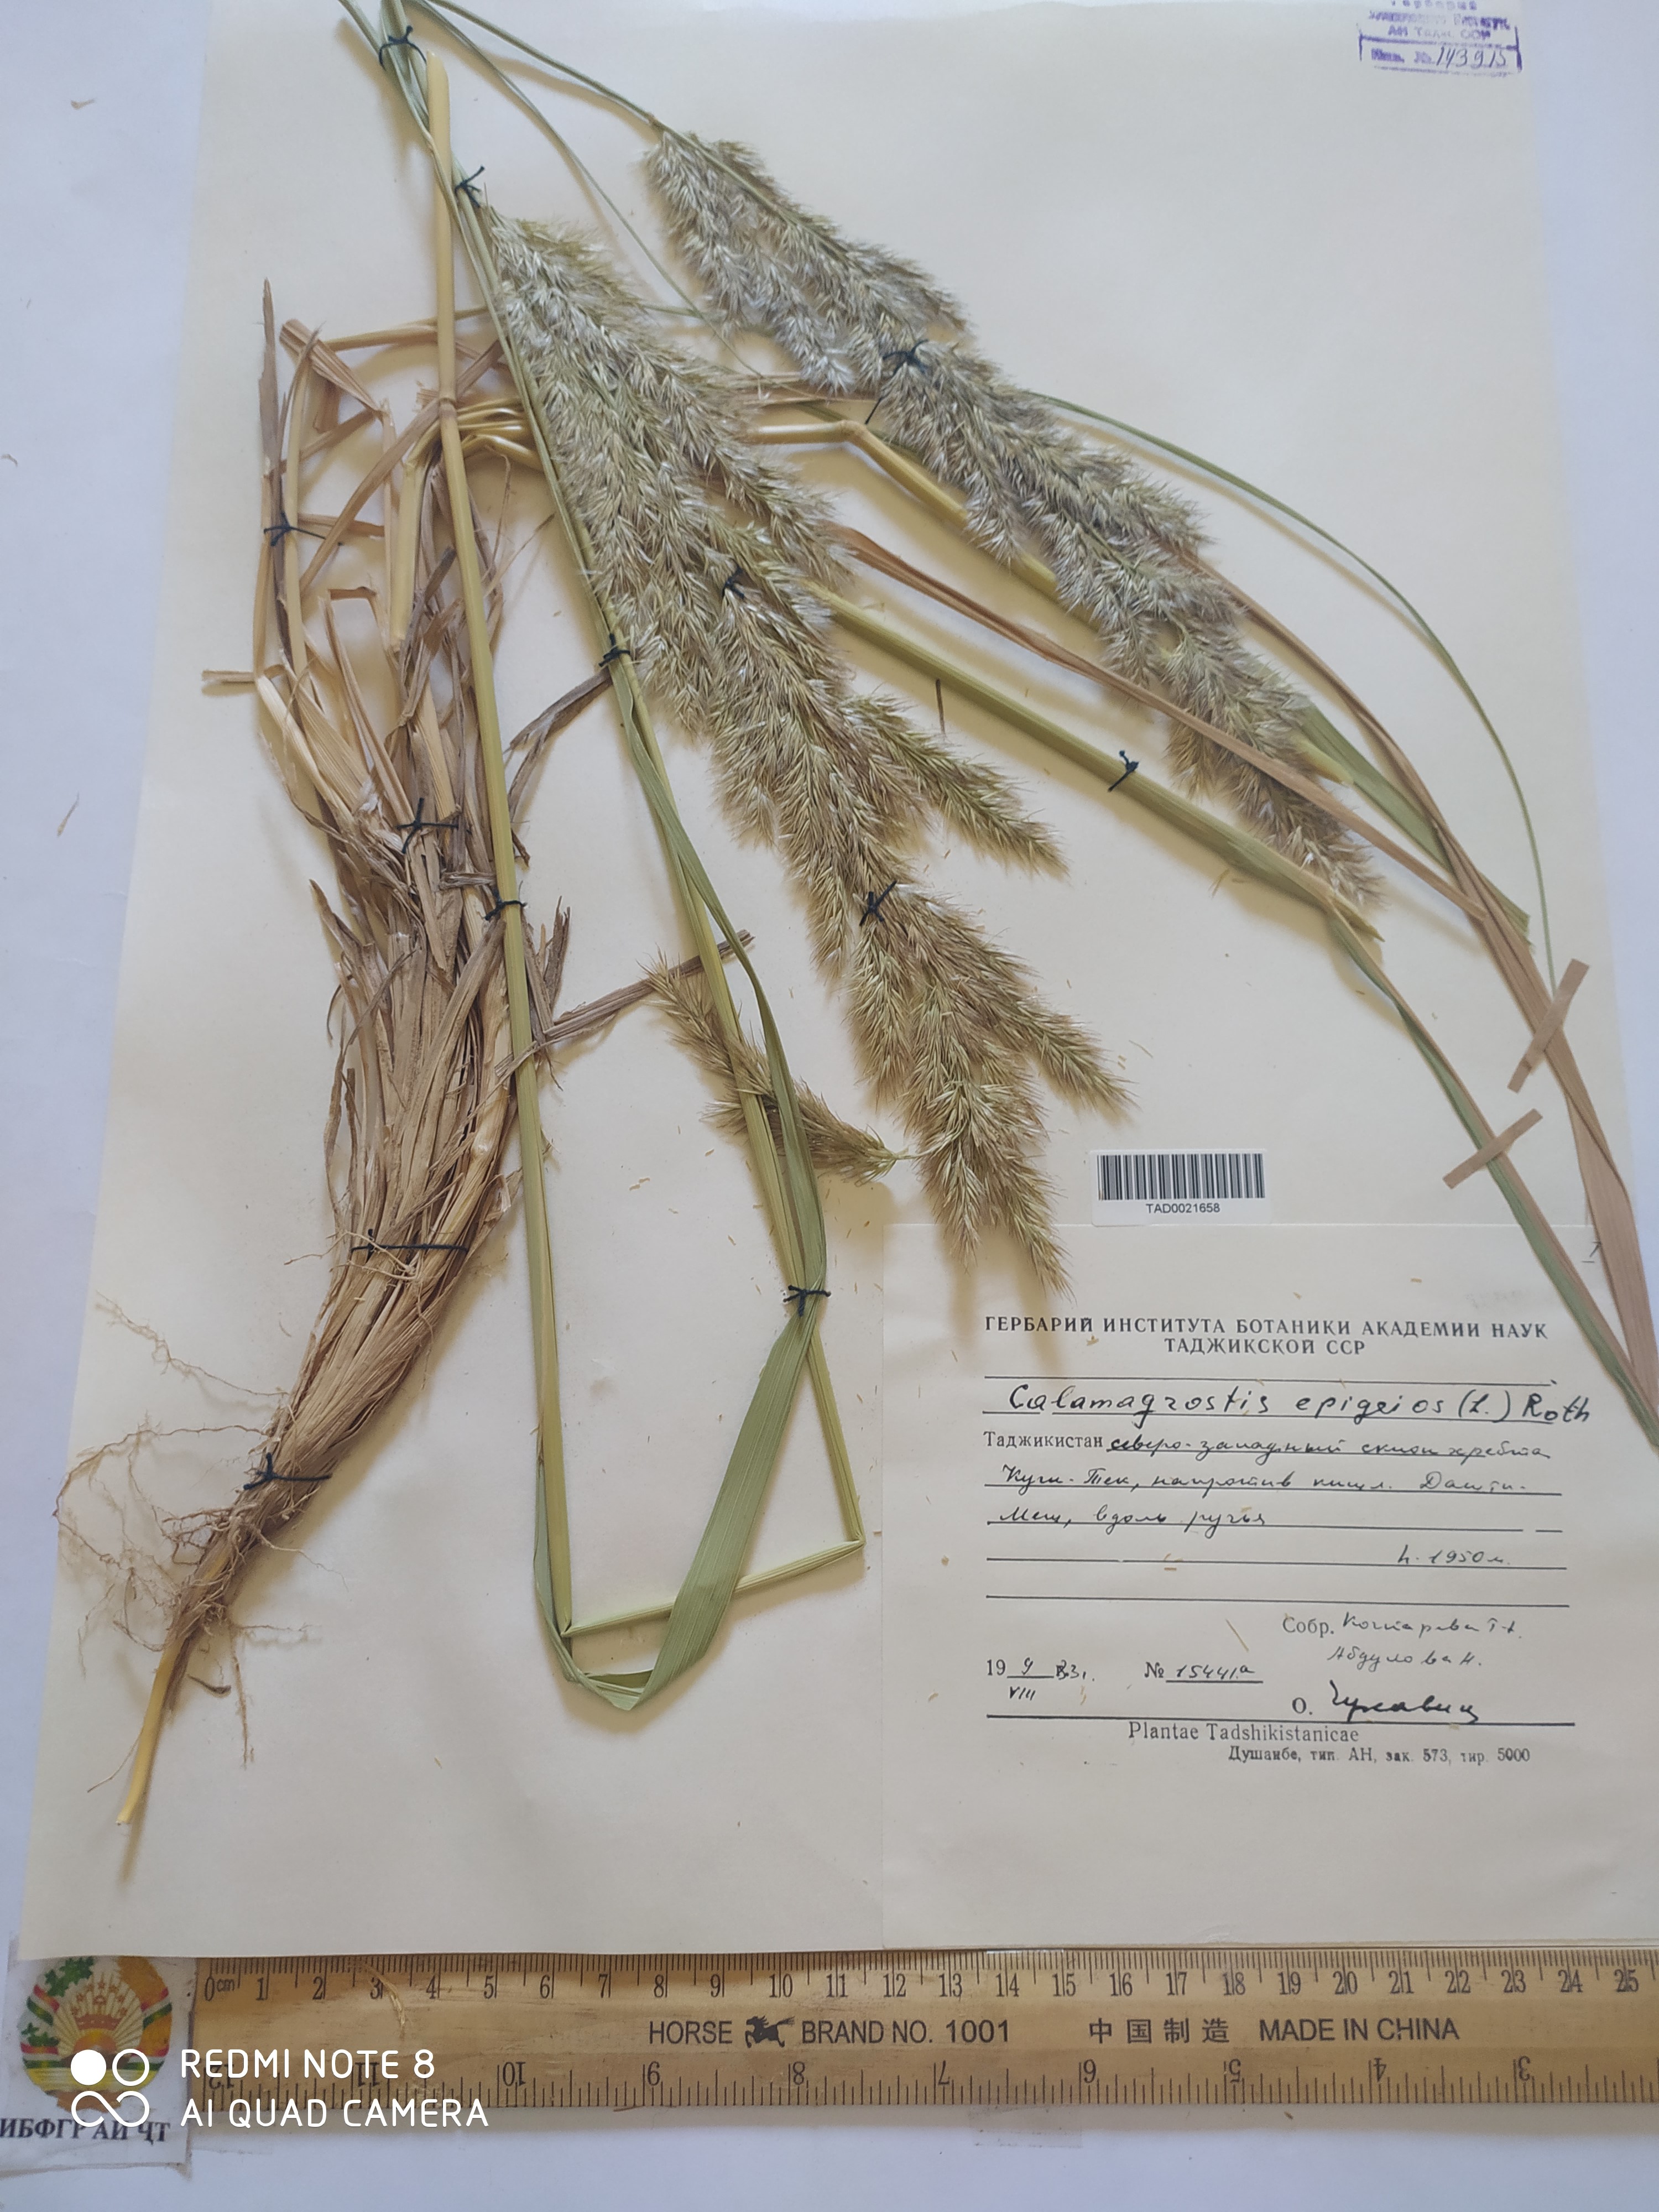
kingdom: Plantae
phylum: Tracheophyta
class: Liliopsida
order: Poales
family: Poaceae
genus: Calamagrostis
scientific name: Calamagrostis epigejos
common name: Wood small-reed
